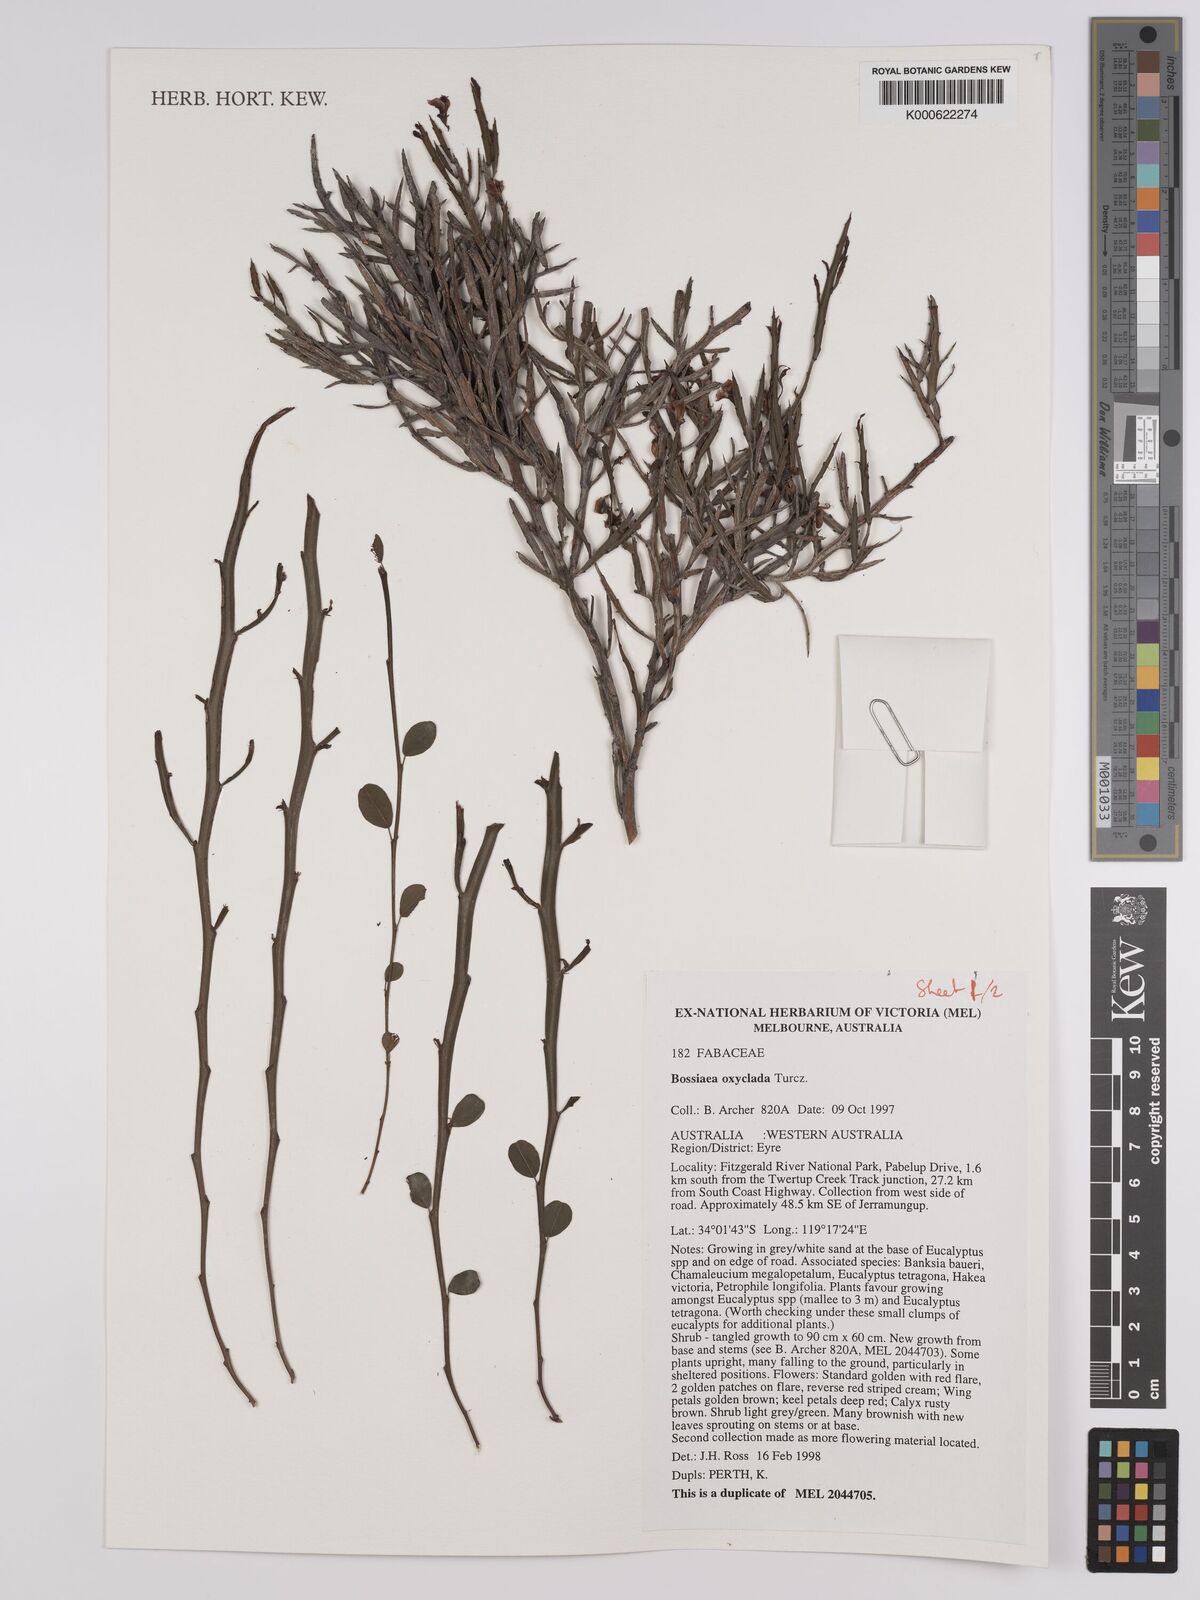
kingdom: Plantae
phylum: Tracheophyta
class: Magnoliopsida
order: Fabales
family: Fabaceae
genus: Bossiaea
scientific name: Bossiaea oxyclada
